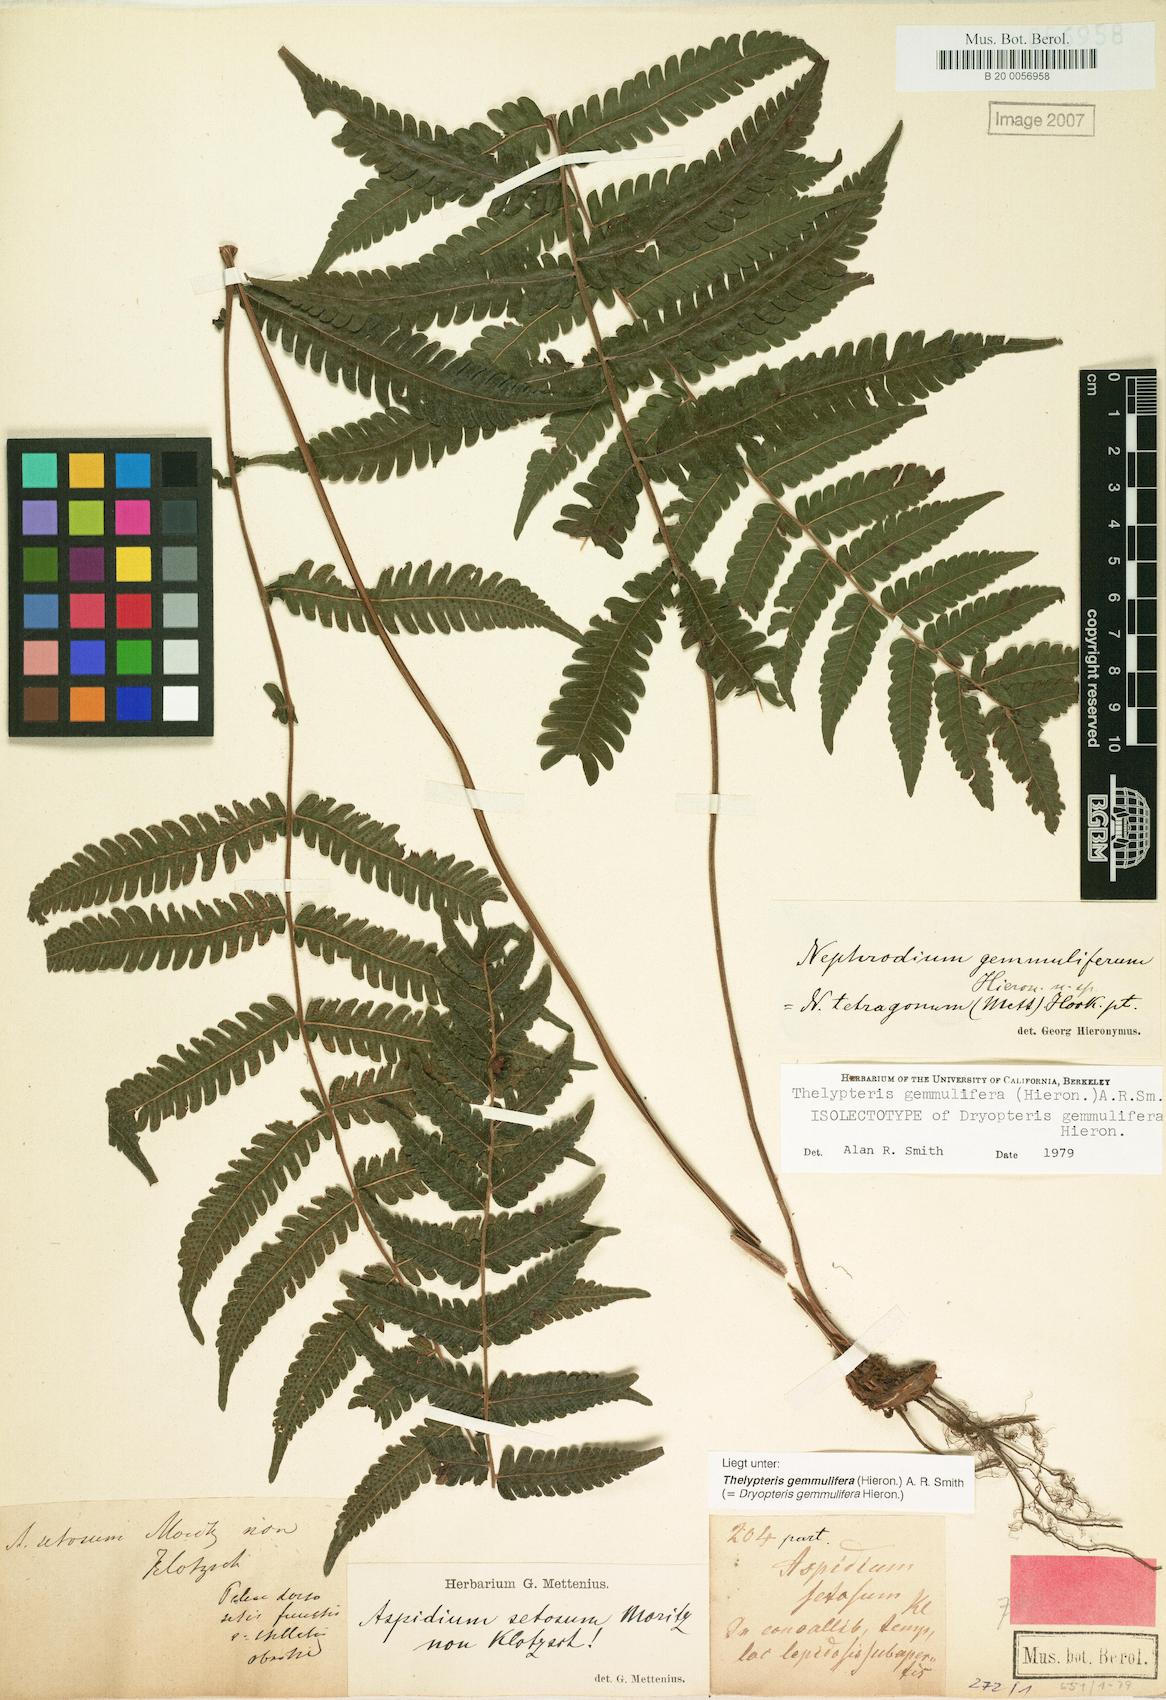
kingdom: Plantae
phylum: Tracheophyta
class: Polypodiopsida
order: Polypodiales
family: Thelypteridaceae
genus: Goniopteris
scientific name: Goniopteris gemmulifera
